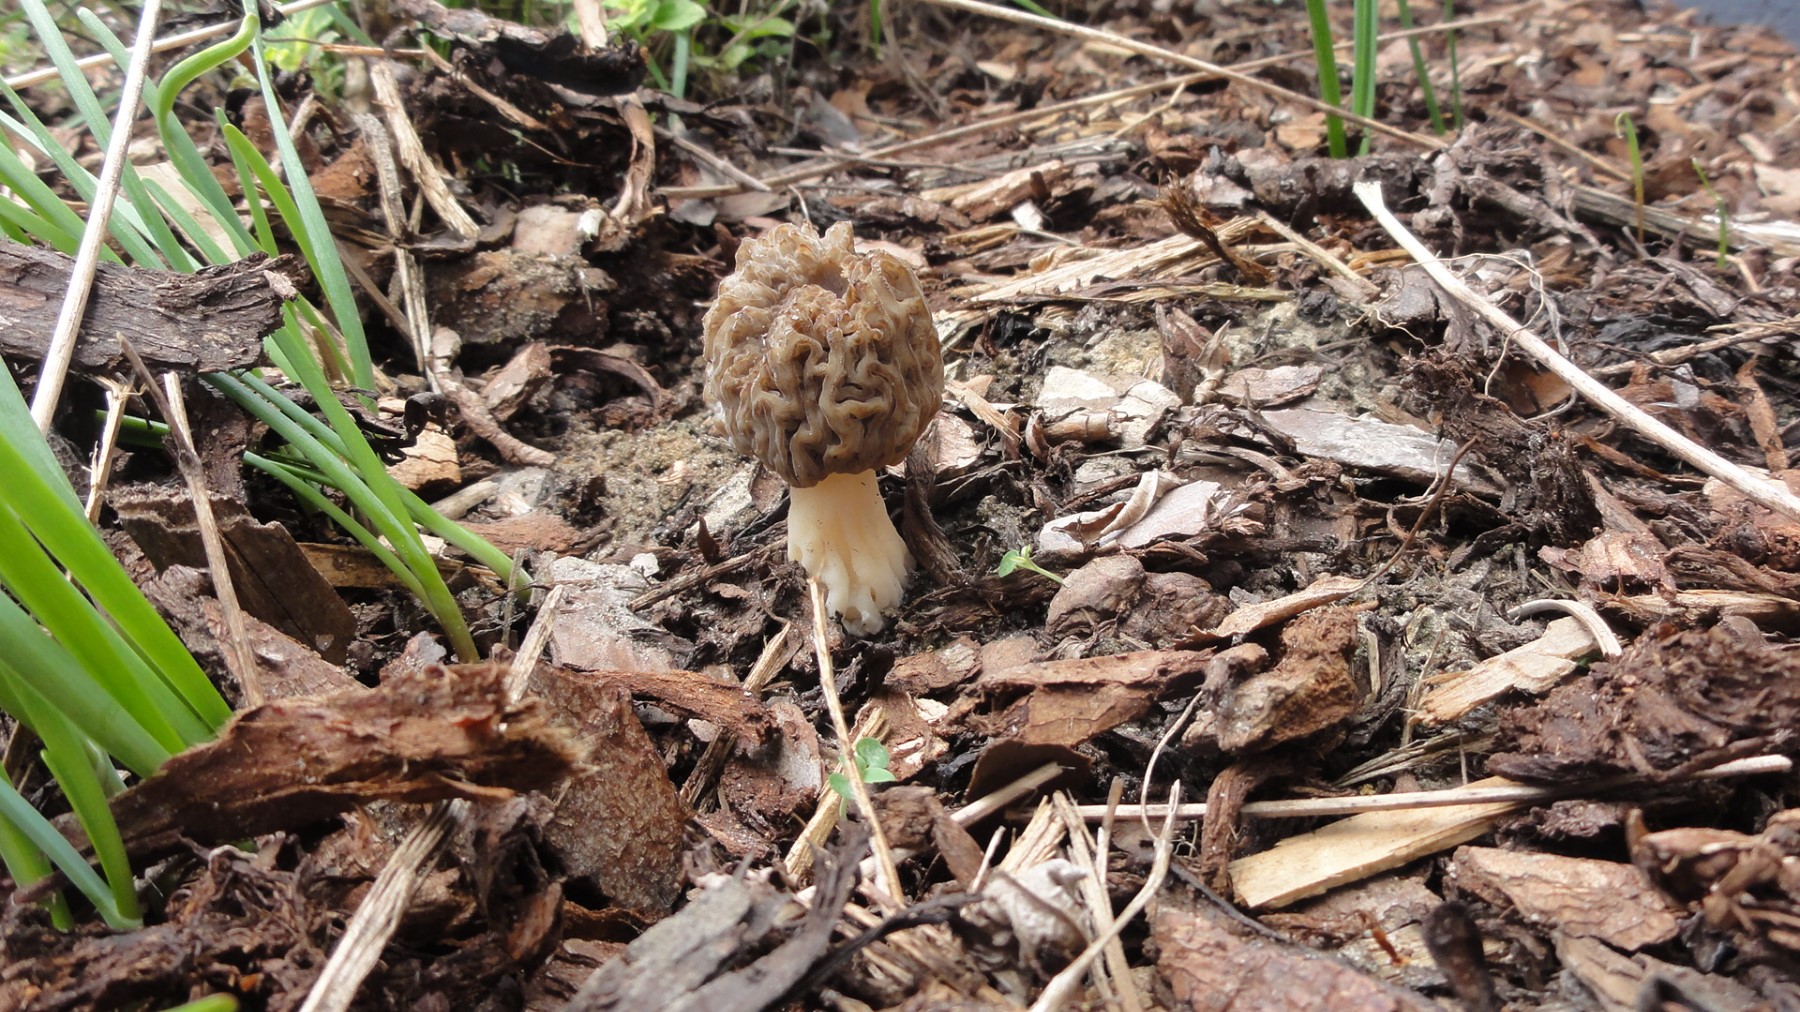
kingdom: Fungi
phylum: Ascomycota
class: Pezizomycetes
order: Pezizales
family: Morchellaceae
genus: Morchella
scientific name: Morchella esculenta
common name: almindelig morkel
